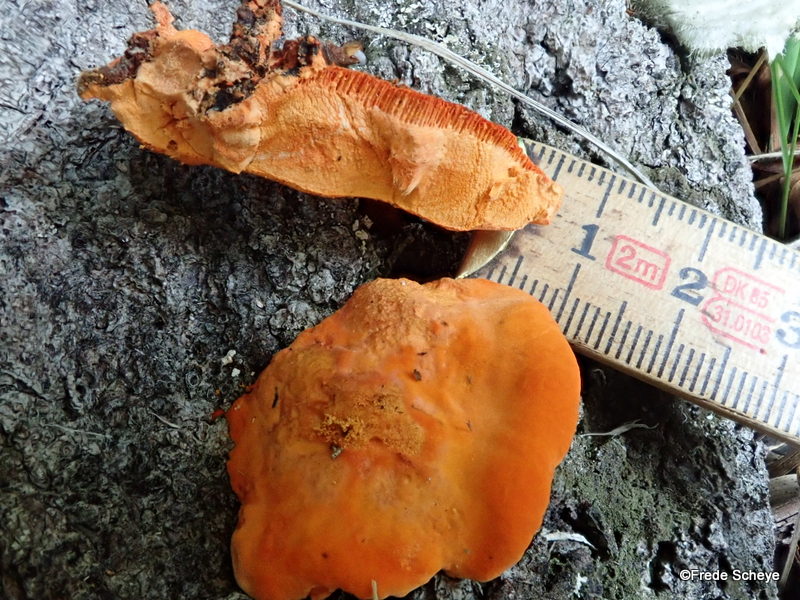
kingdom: Fungi
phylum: Basidiomycota
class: Agaricomycetes
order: Polyporales
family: Polyporaceae
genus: Trametes
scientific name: Trametes cinnabarina
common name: cinnoberporesvamp
